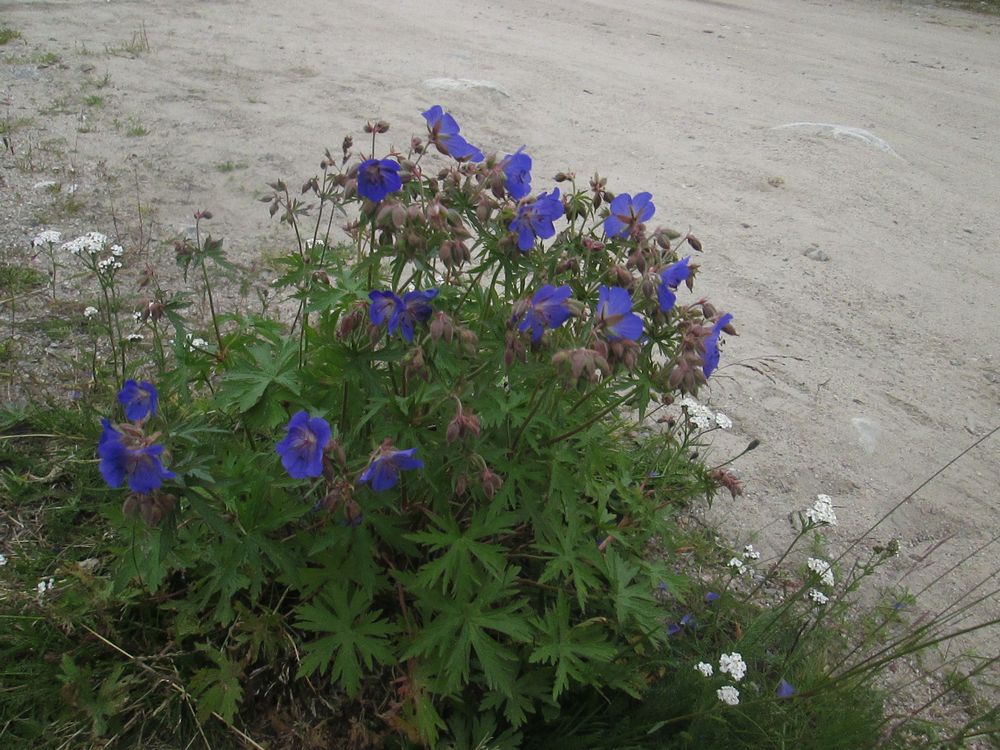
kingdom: Plantae
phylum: Tracheophyta
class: Magnoliopsida
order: Geraniales
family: Geraniaceae
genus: Geranium
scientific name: Geranium pratense
